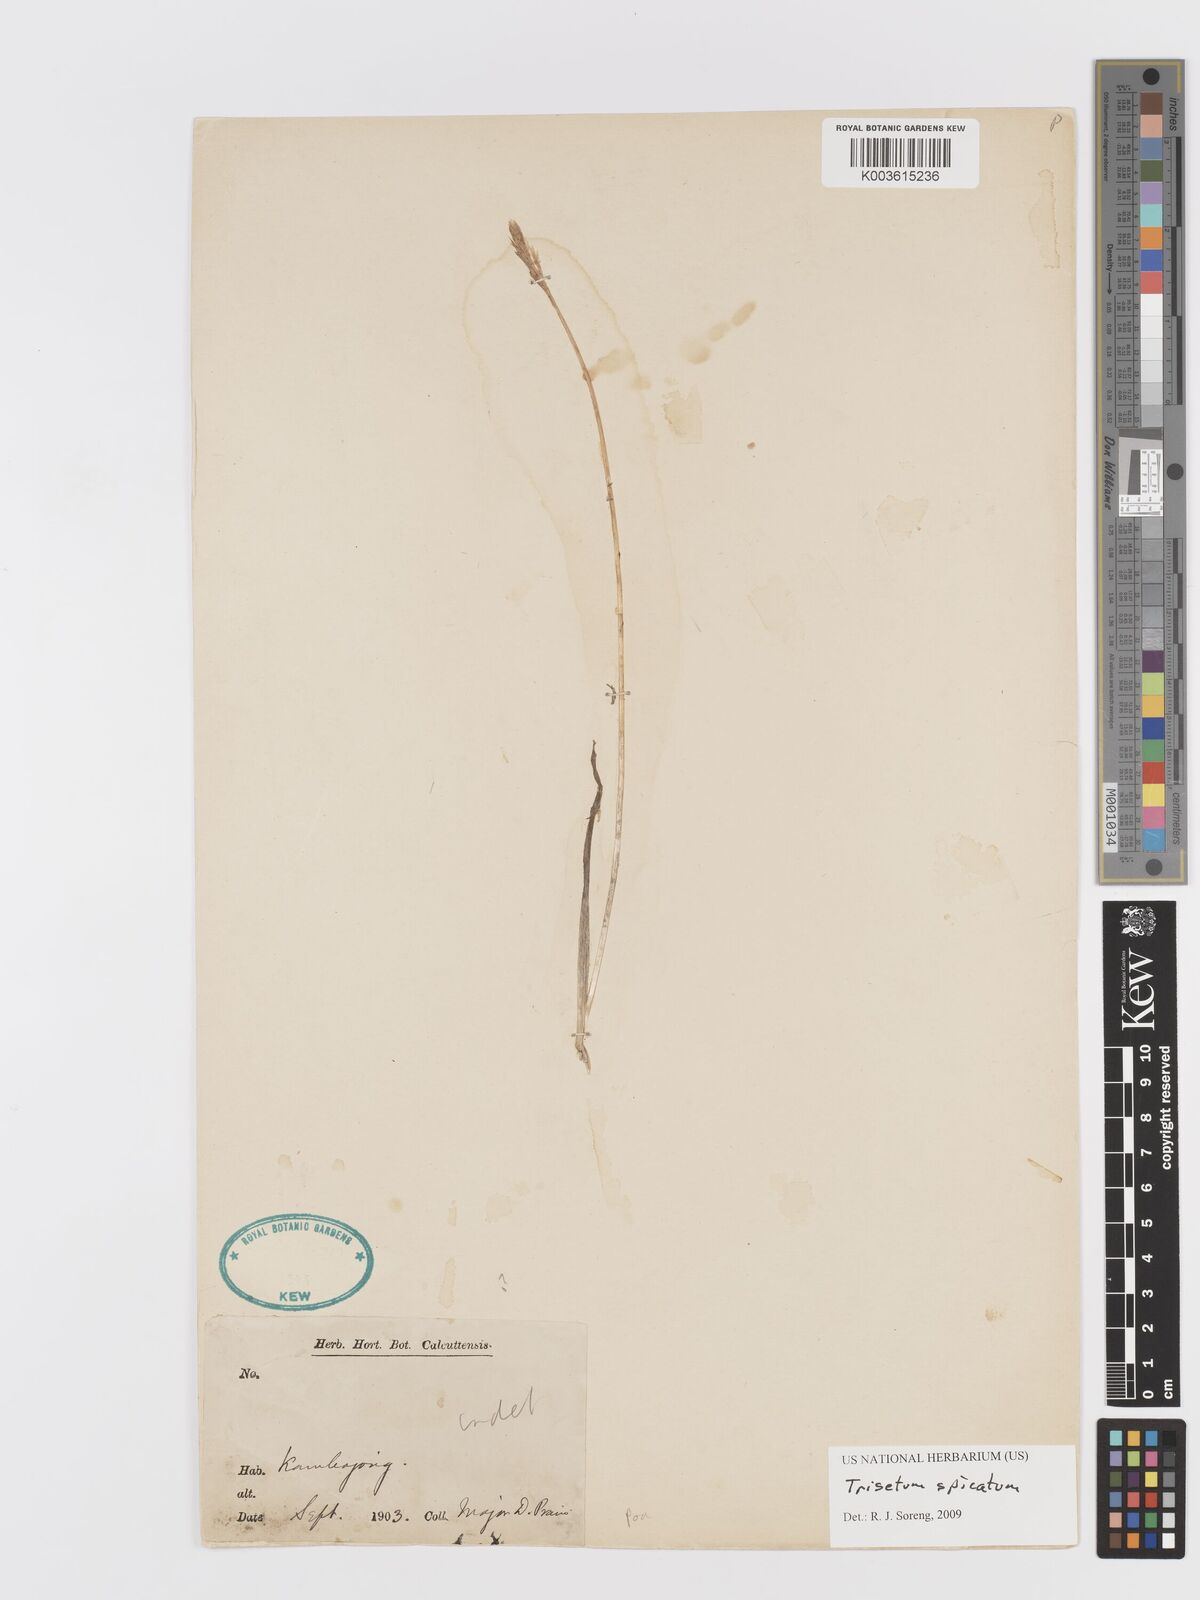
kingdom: Plantae
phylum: Tracheophyta
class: Liliopsida
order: Poales
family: Poaceae
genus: Koeleria
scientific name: Koeleria spicata
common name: Mountain trisetum
